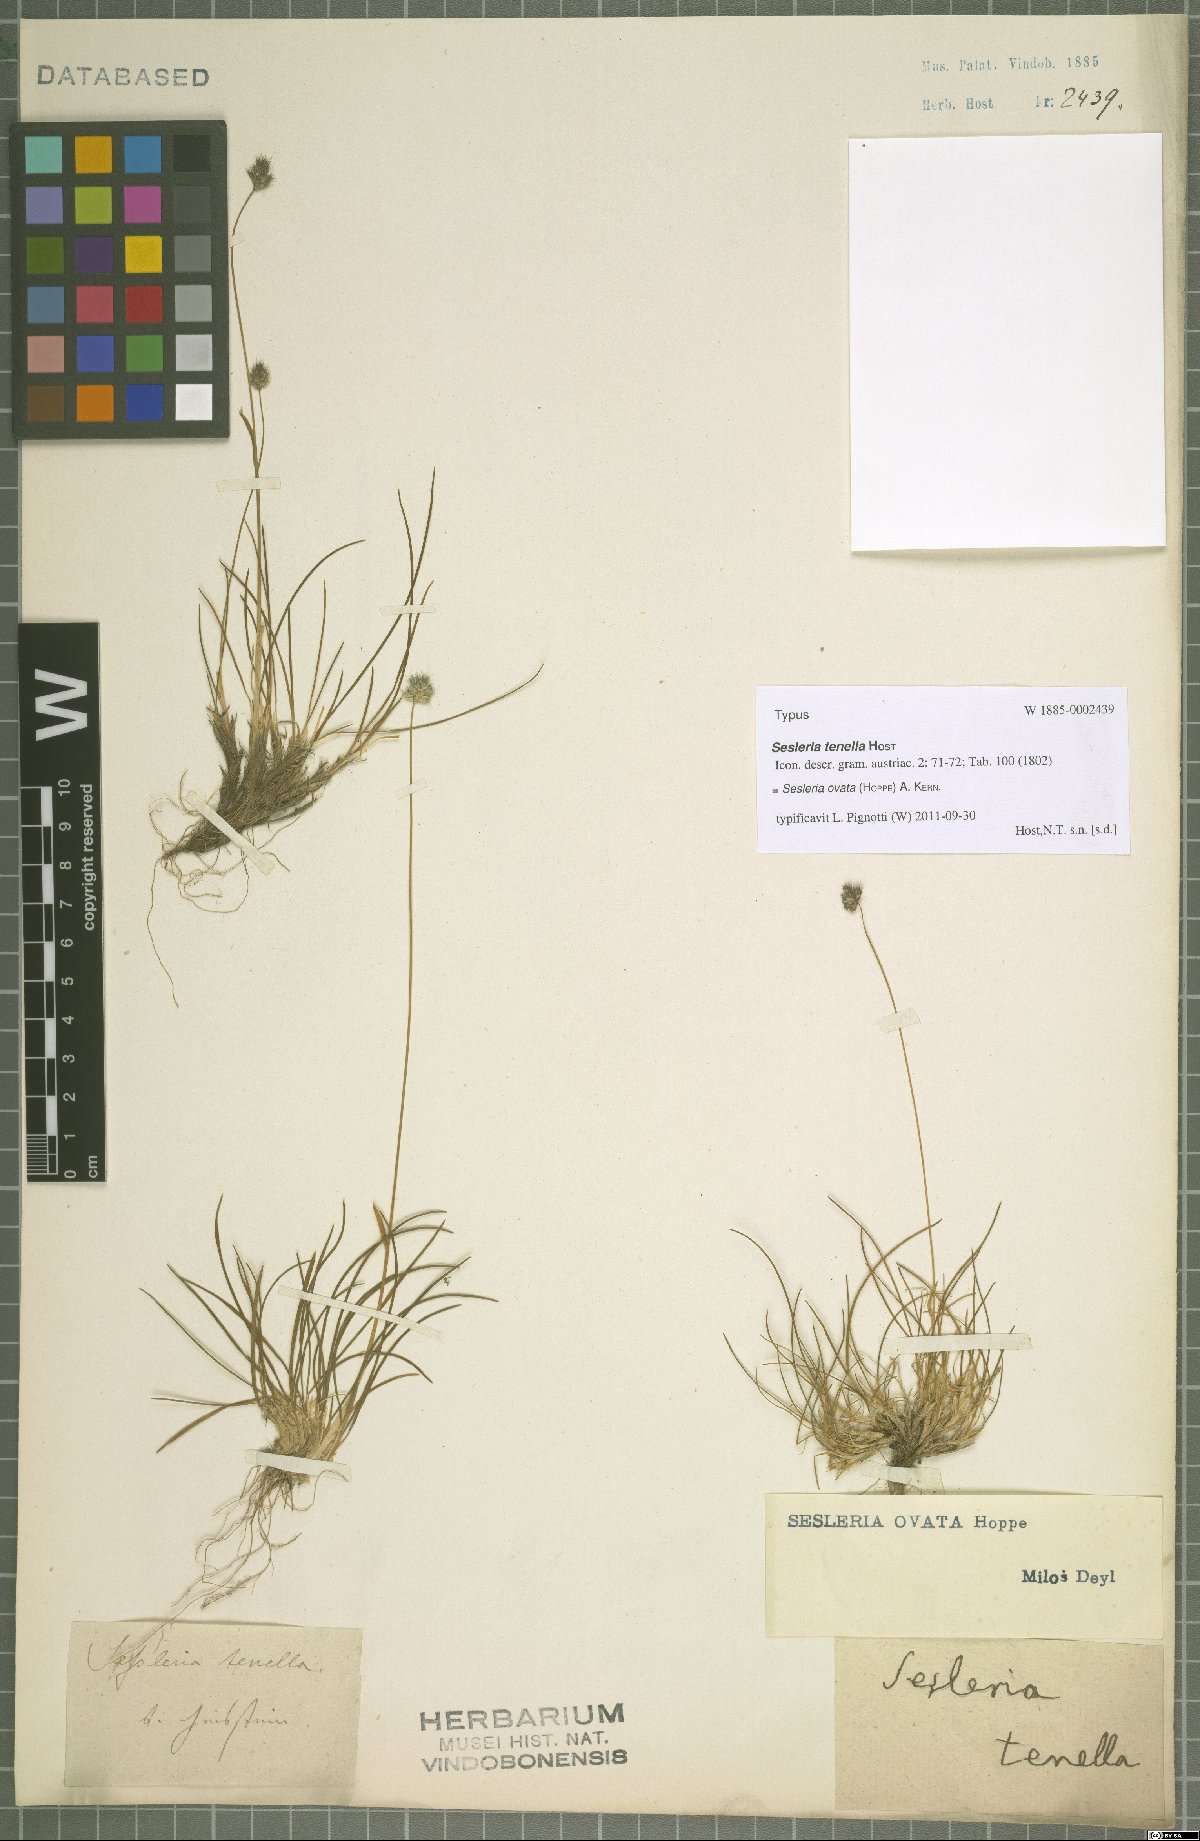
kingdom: Plantae
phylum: Tracheophyta
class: Liliopsida
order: Poales
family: Poaceae
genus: Psilathera
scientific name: Psilathera ovata
